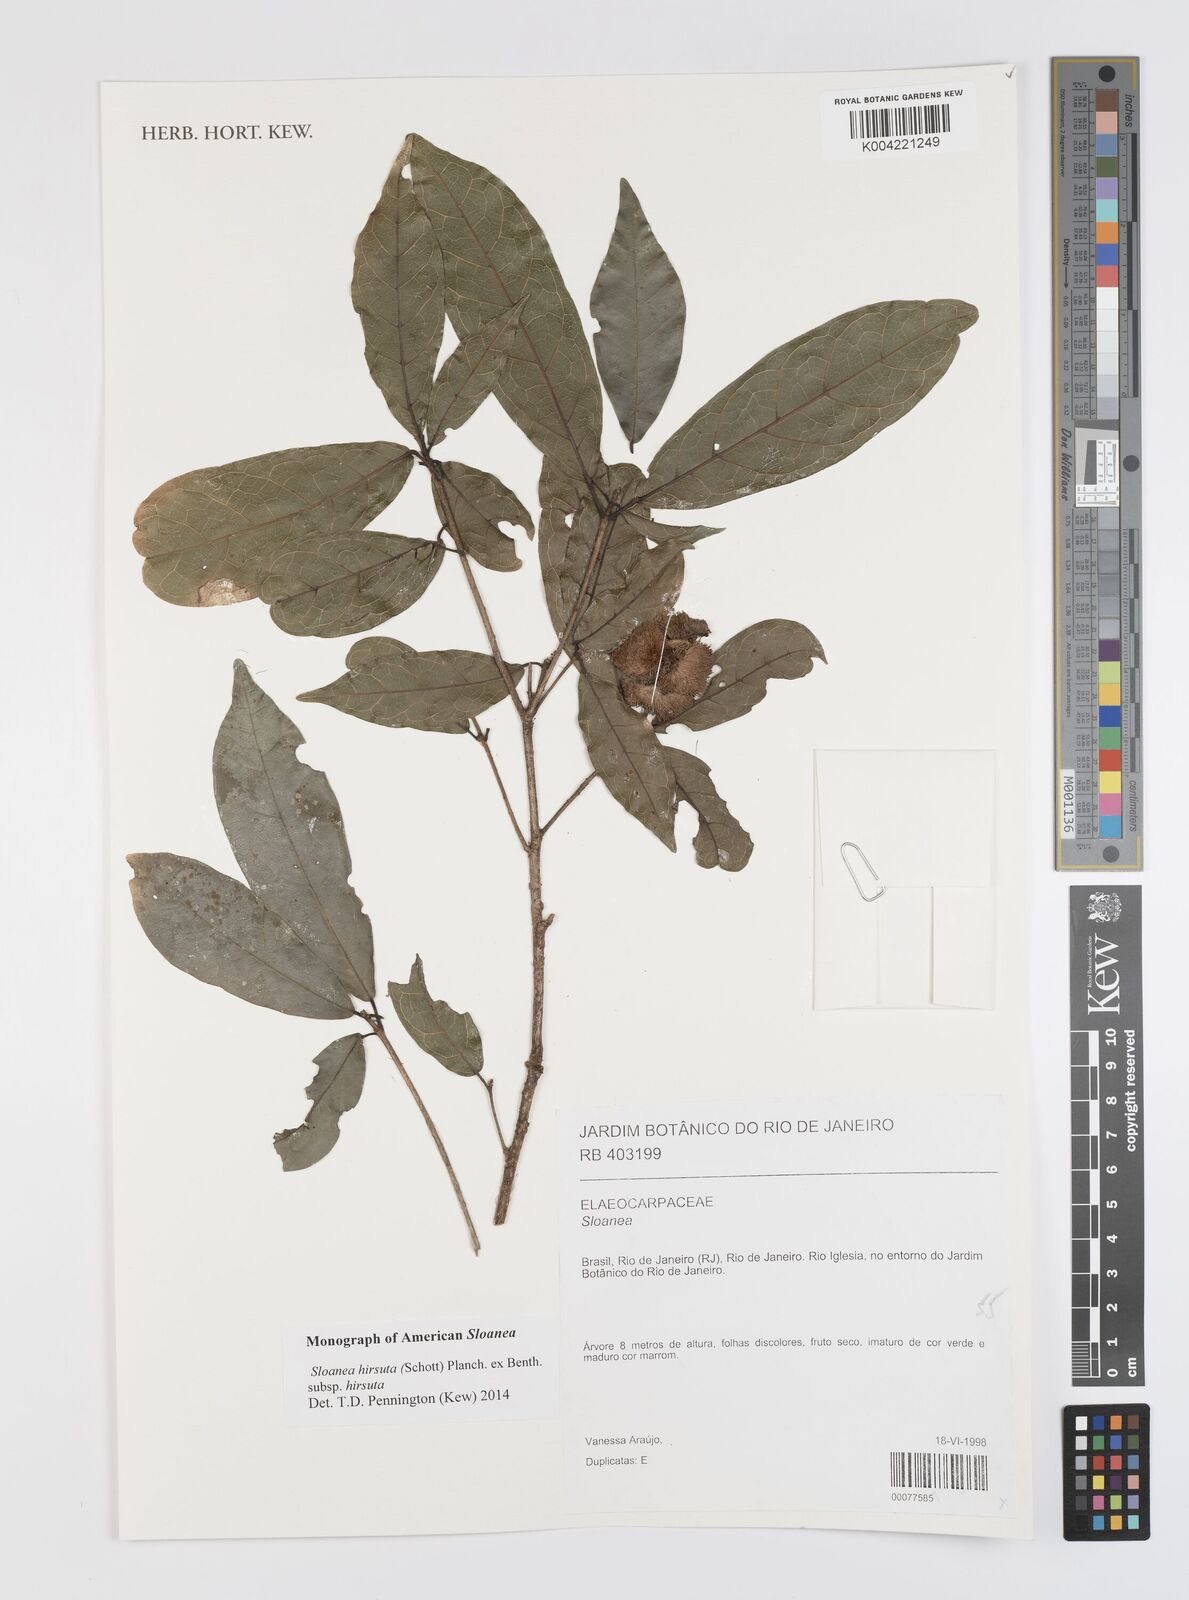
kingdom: Plantae
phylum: Tracheophyta
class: Magnoliopsida
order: Oxalidales
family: Elaeocarpaceae
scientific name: Elaeocarpaceae
